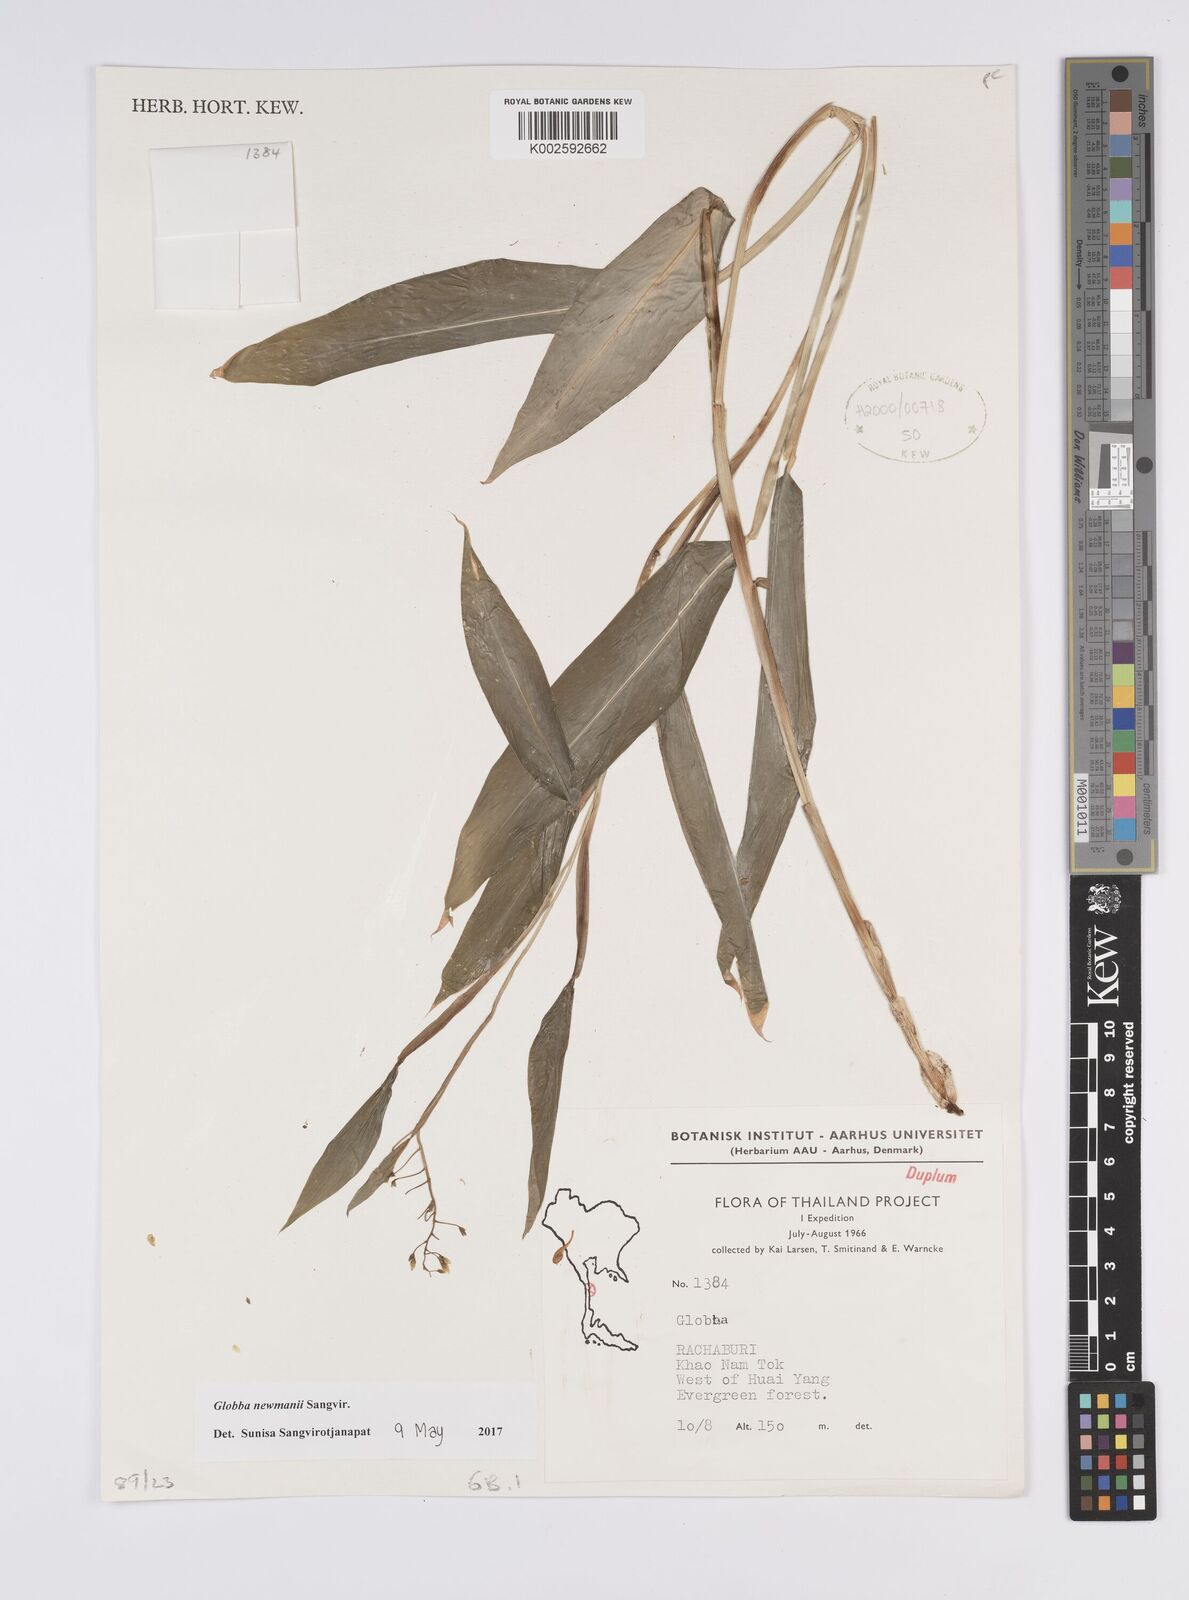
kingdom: Plantae
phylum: Tracheophyta
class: Liliopsida
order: Zingiberales
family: Zingiberaceae
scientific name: Zingiberaceae
